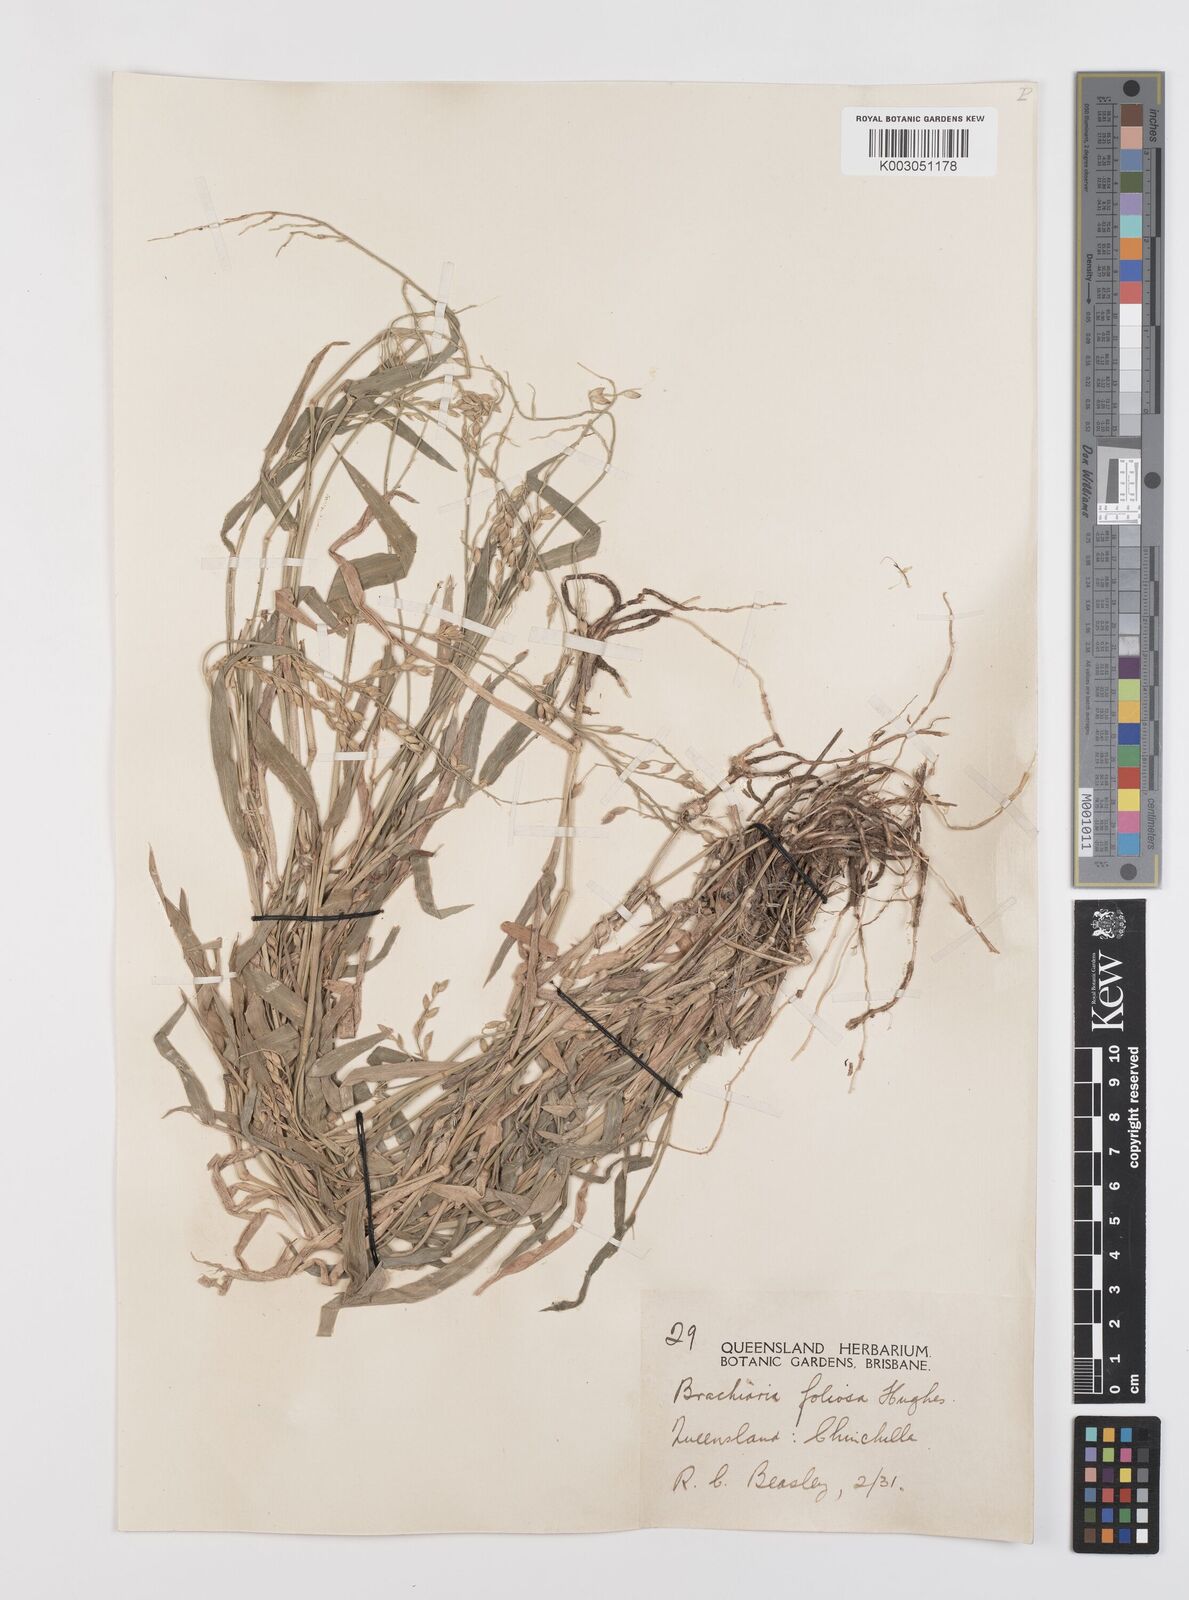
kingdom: Plantae
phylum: Tracheophyta
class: Liliopsida
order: Poales
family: Poaceae
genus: Urochloa
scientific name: Urochloa foliosa
